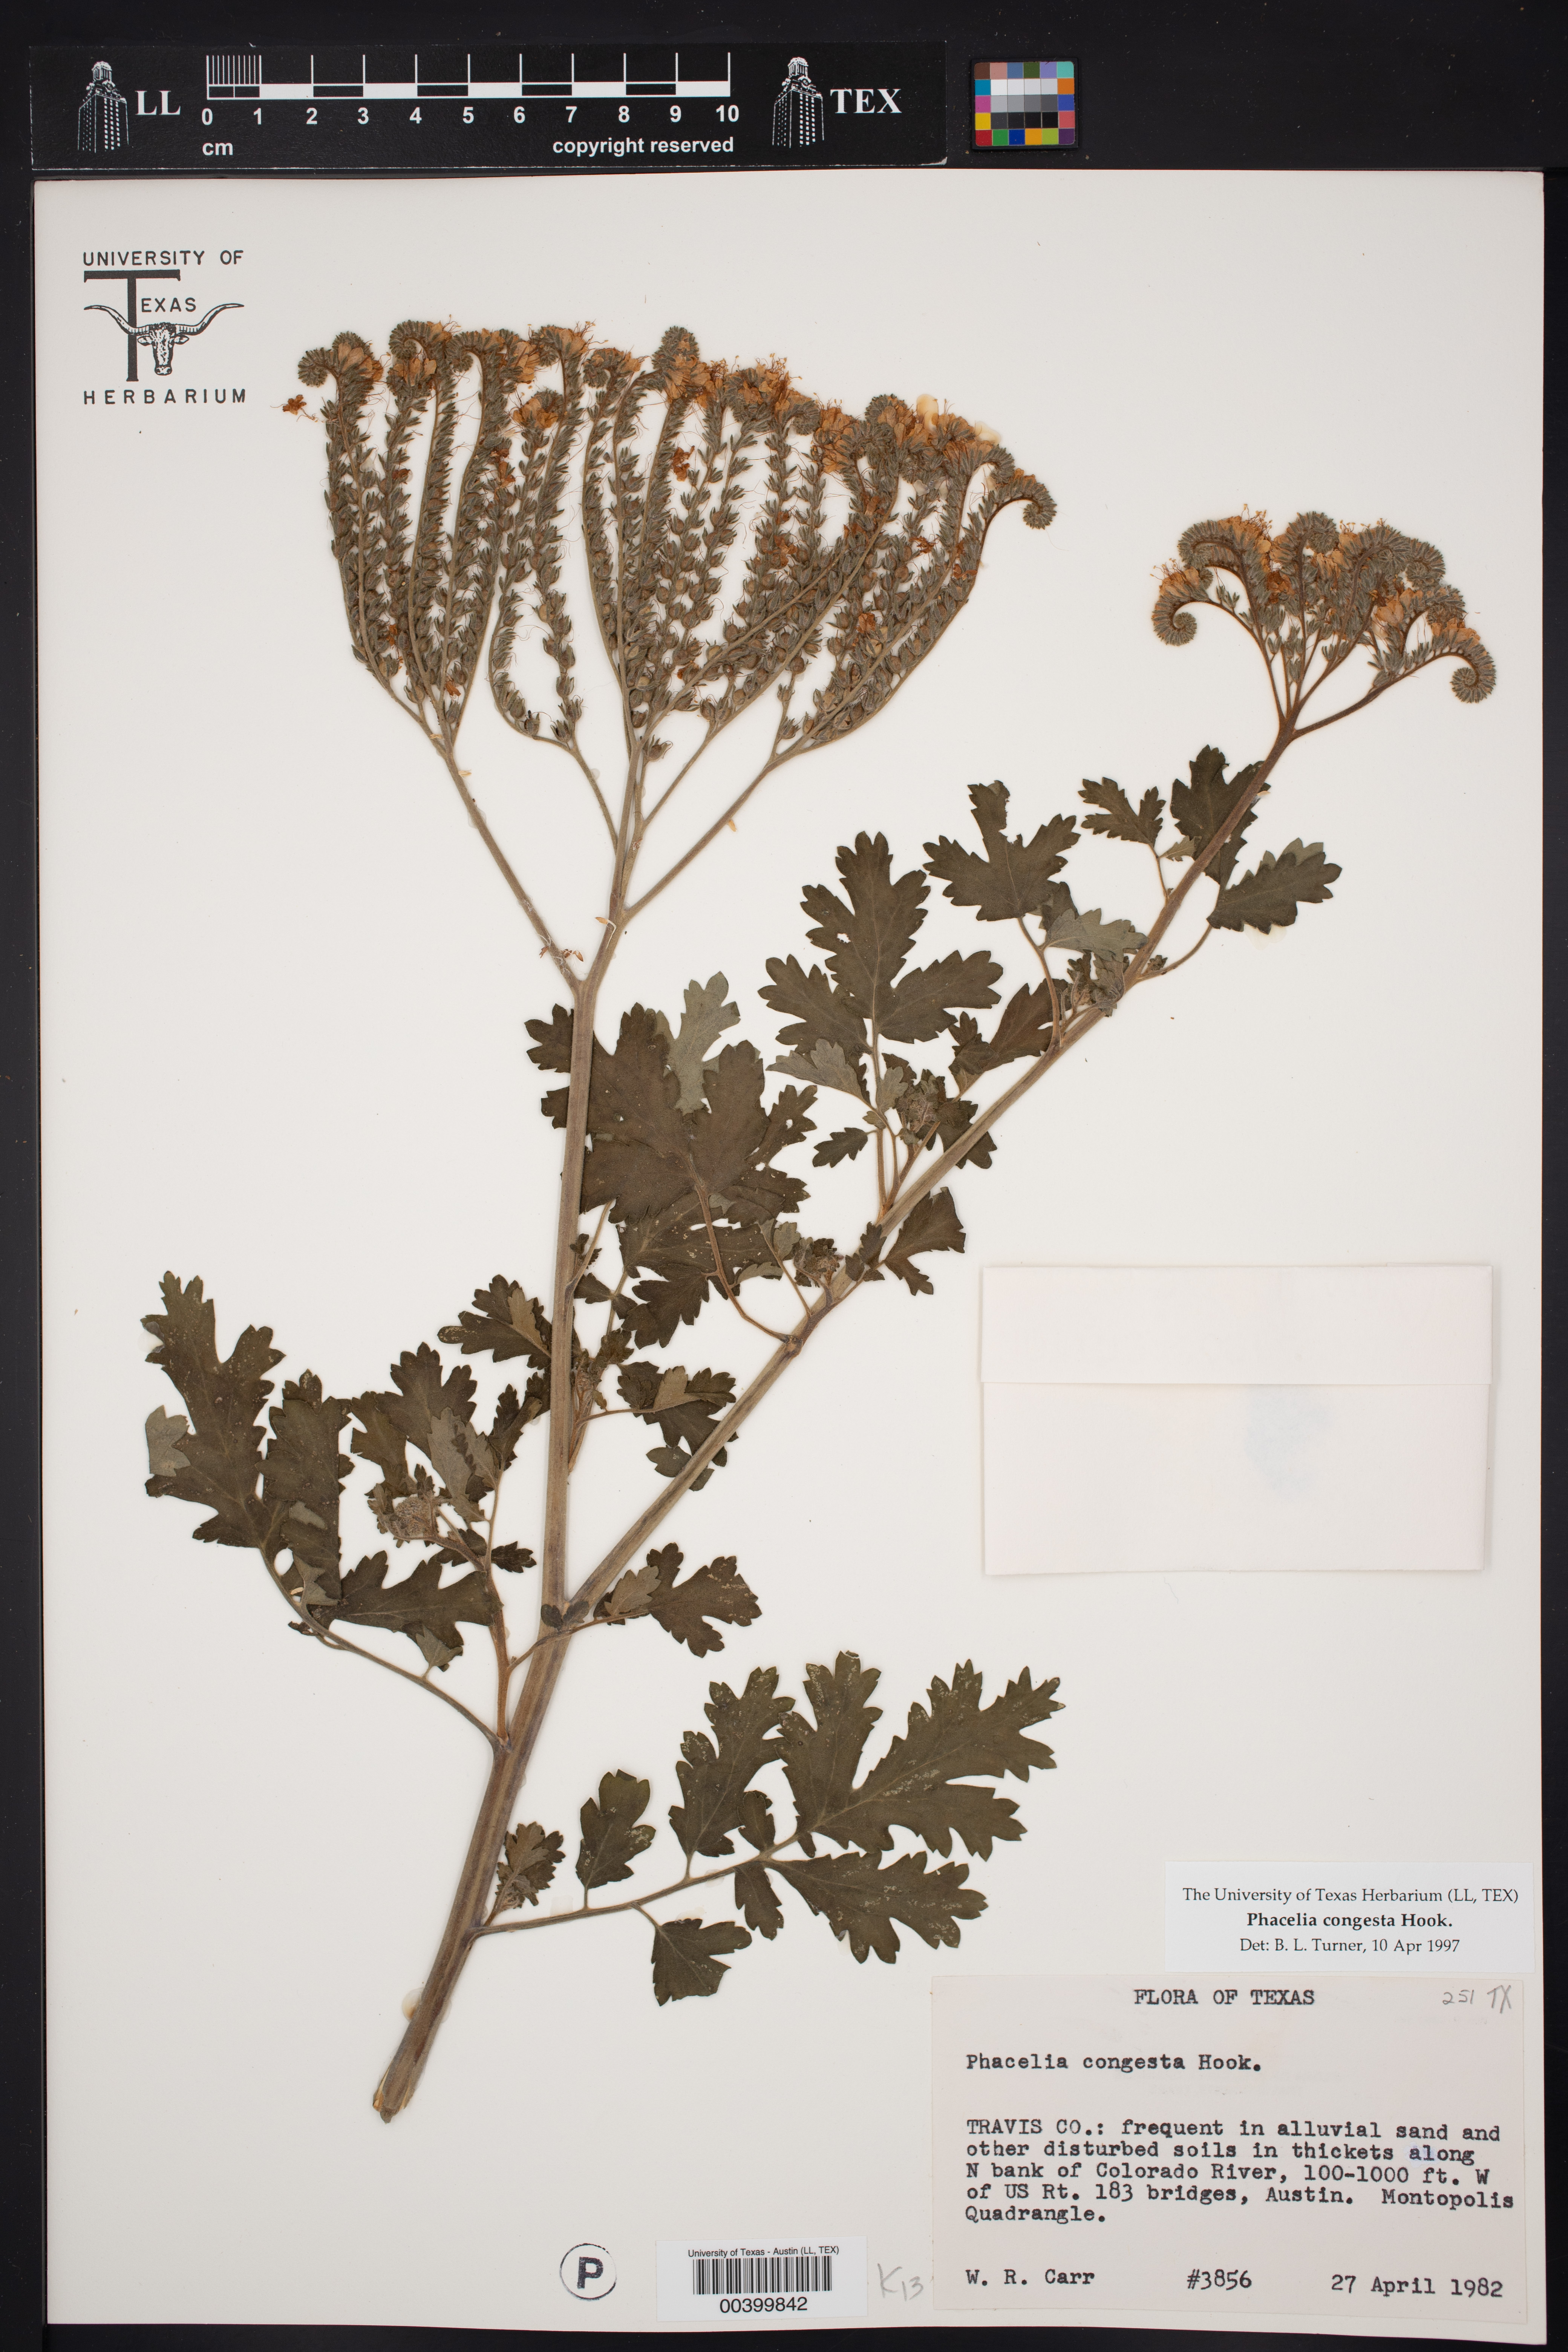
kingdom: Plantae
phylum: Tracheophyta
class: Magnoliopsida
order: Boraginales
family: Hydrophyllaceae
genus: Phacelia
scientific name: Phacelia congesta
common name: Blue curls
